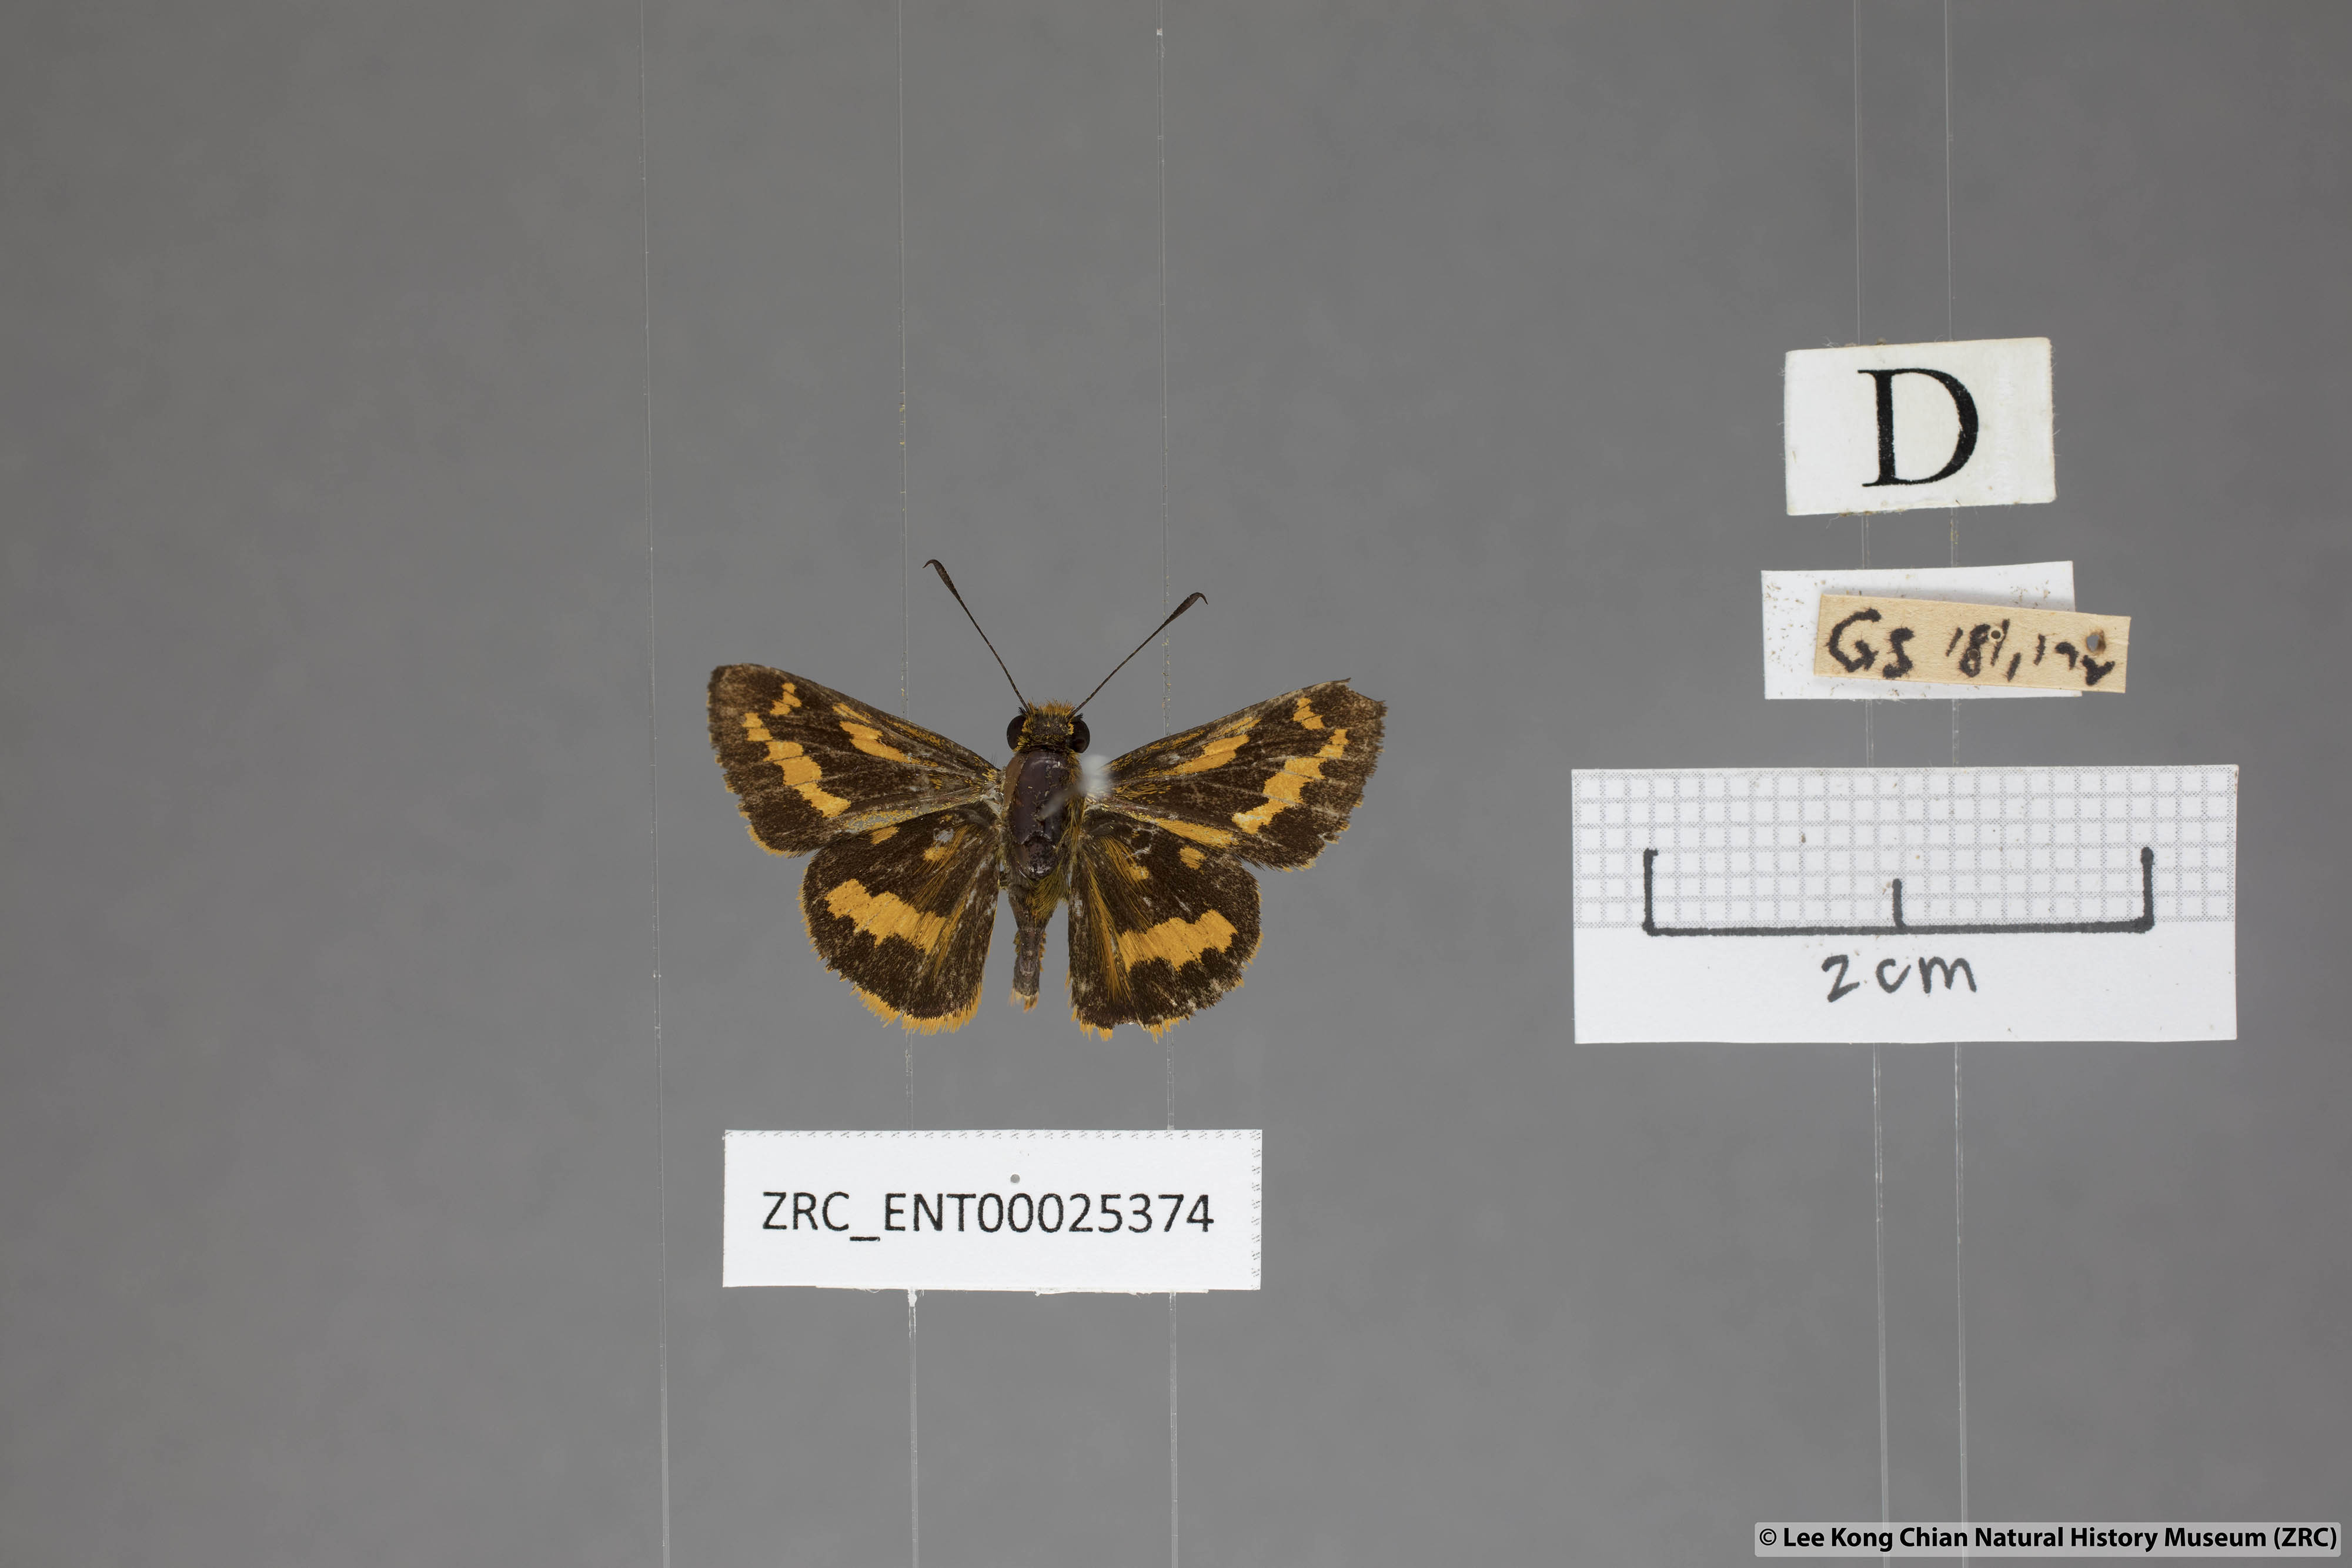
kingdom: Animalia
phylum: Arthropoda
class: Insecta
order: Lepidoptera
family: Hesperiidae
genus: Potanthus
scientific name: Potanthus ganda
